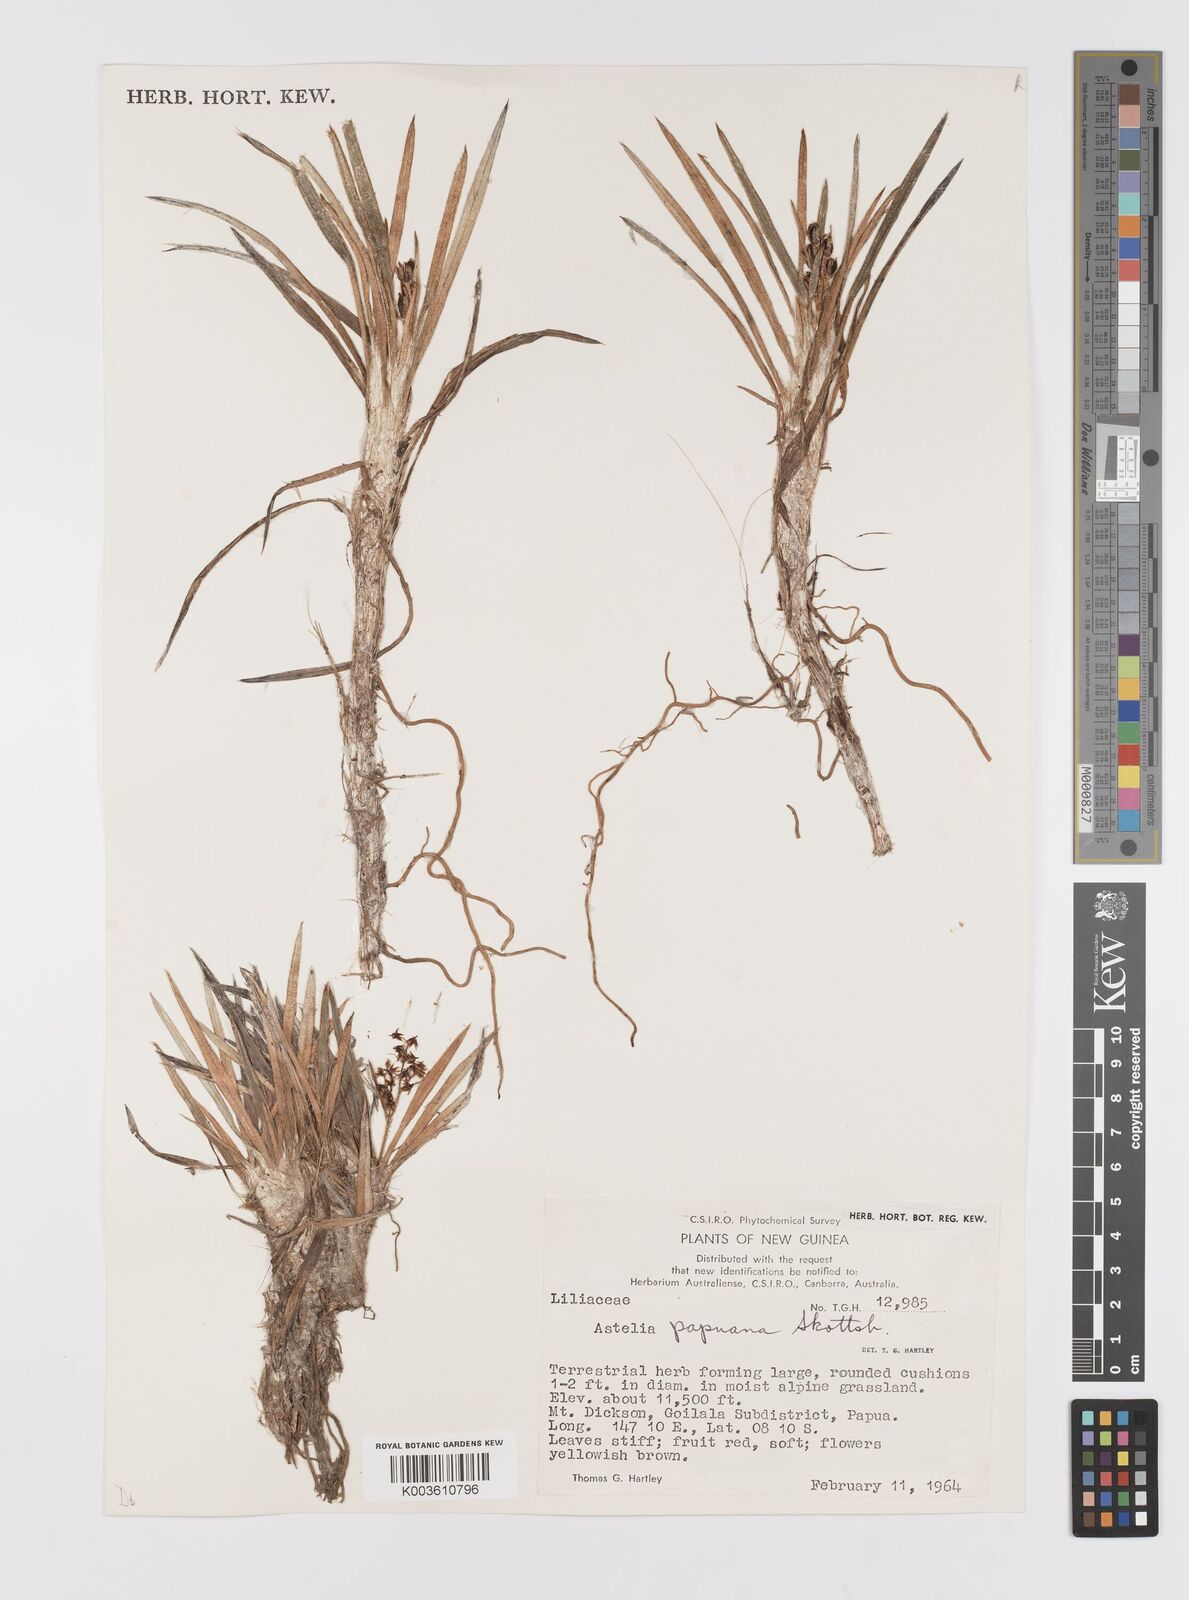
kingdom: Plantae
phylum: Tracheophyta
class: Liliopsida
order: Asparagales
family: Asteliaceae
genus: Astelia
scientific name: Astelia papuana
